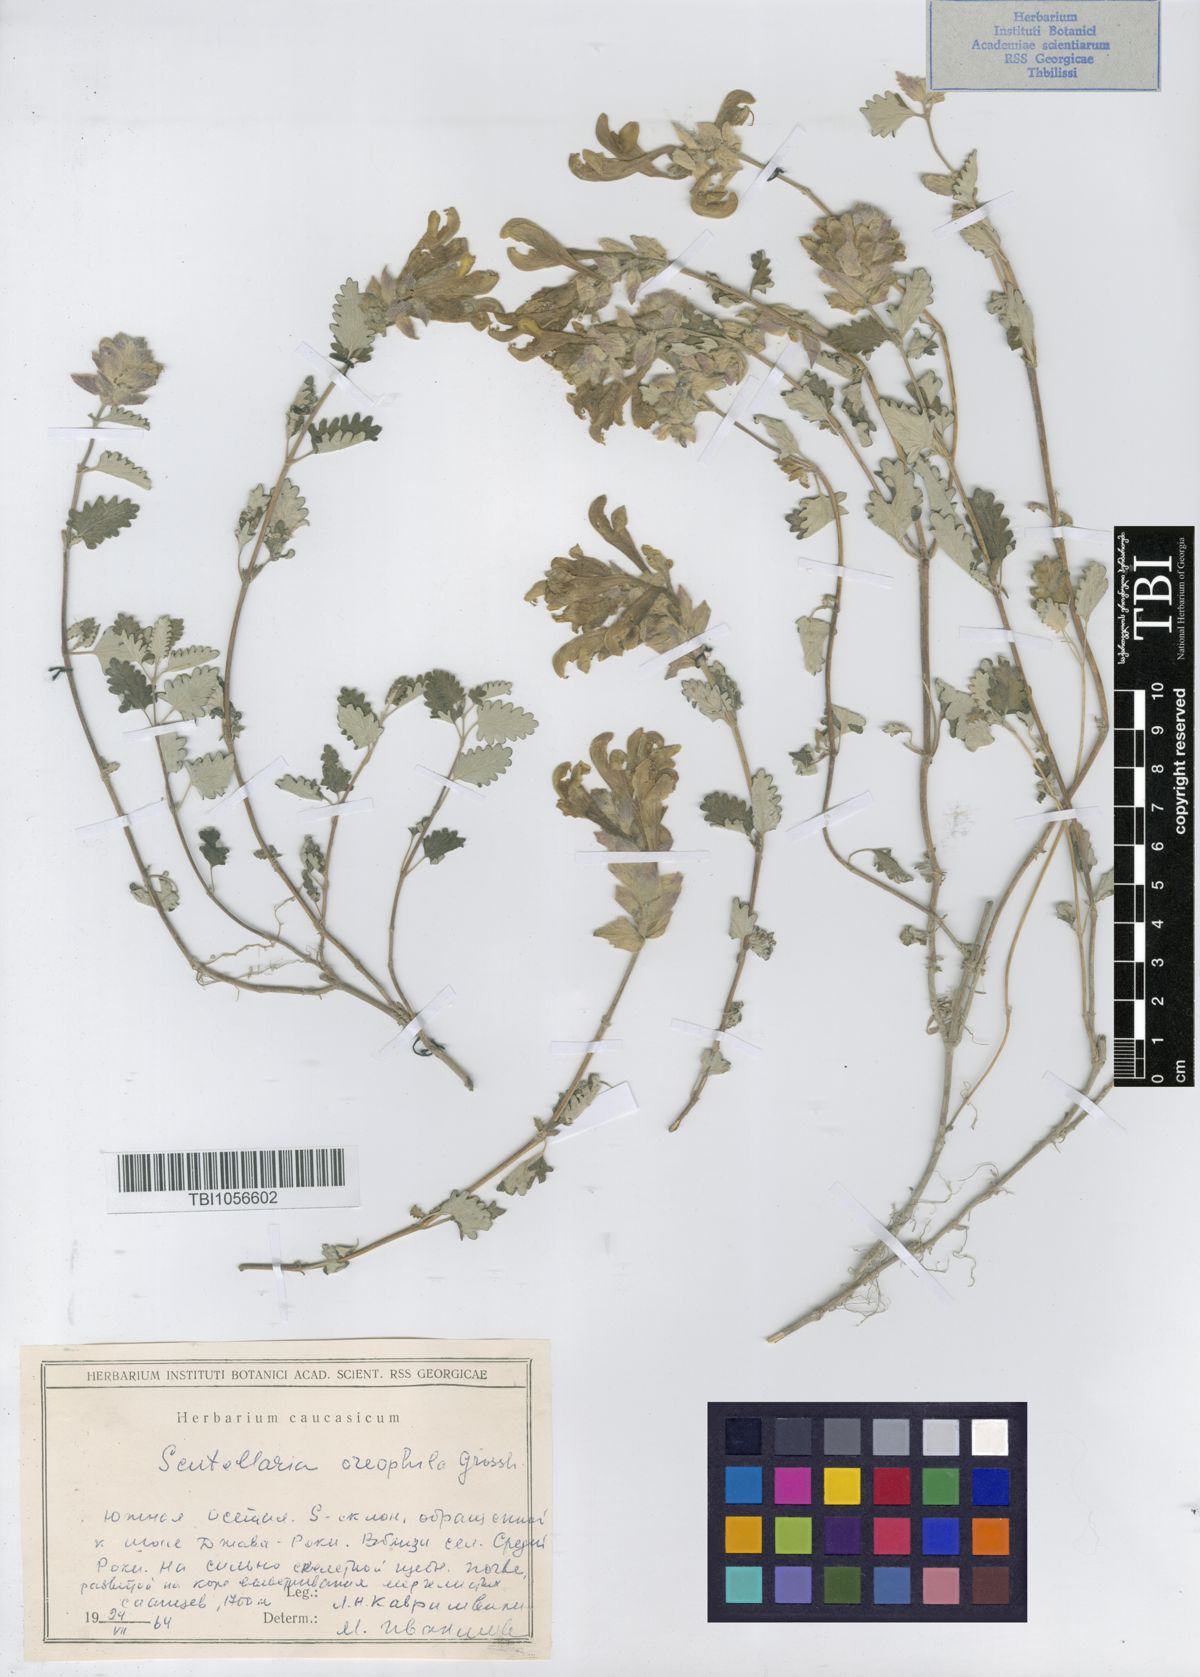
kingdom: Plantae
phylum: Tracheophyta
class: Magnoliopsida
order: Lamiales
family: Lamiaceae
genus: Scutellaria
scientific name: Scutellaria oreophila
